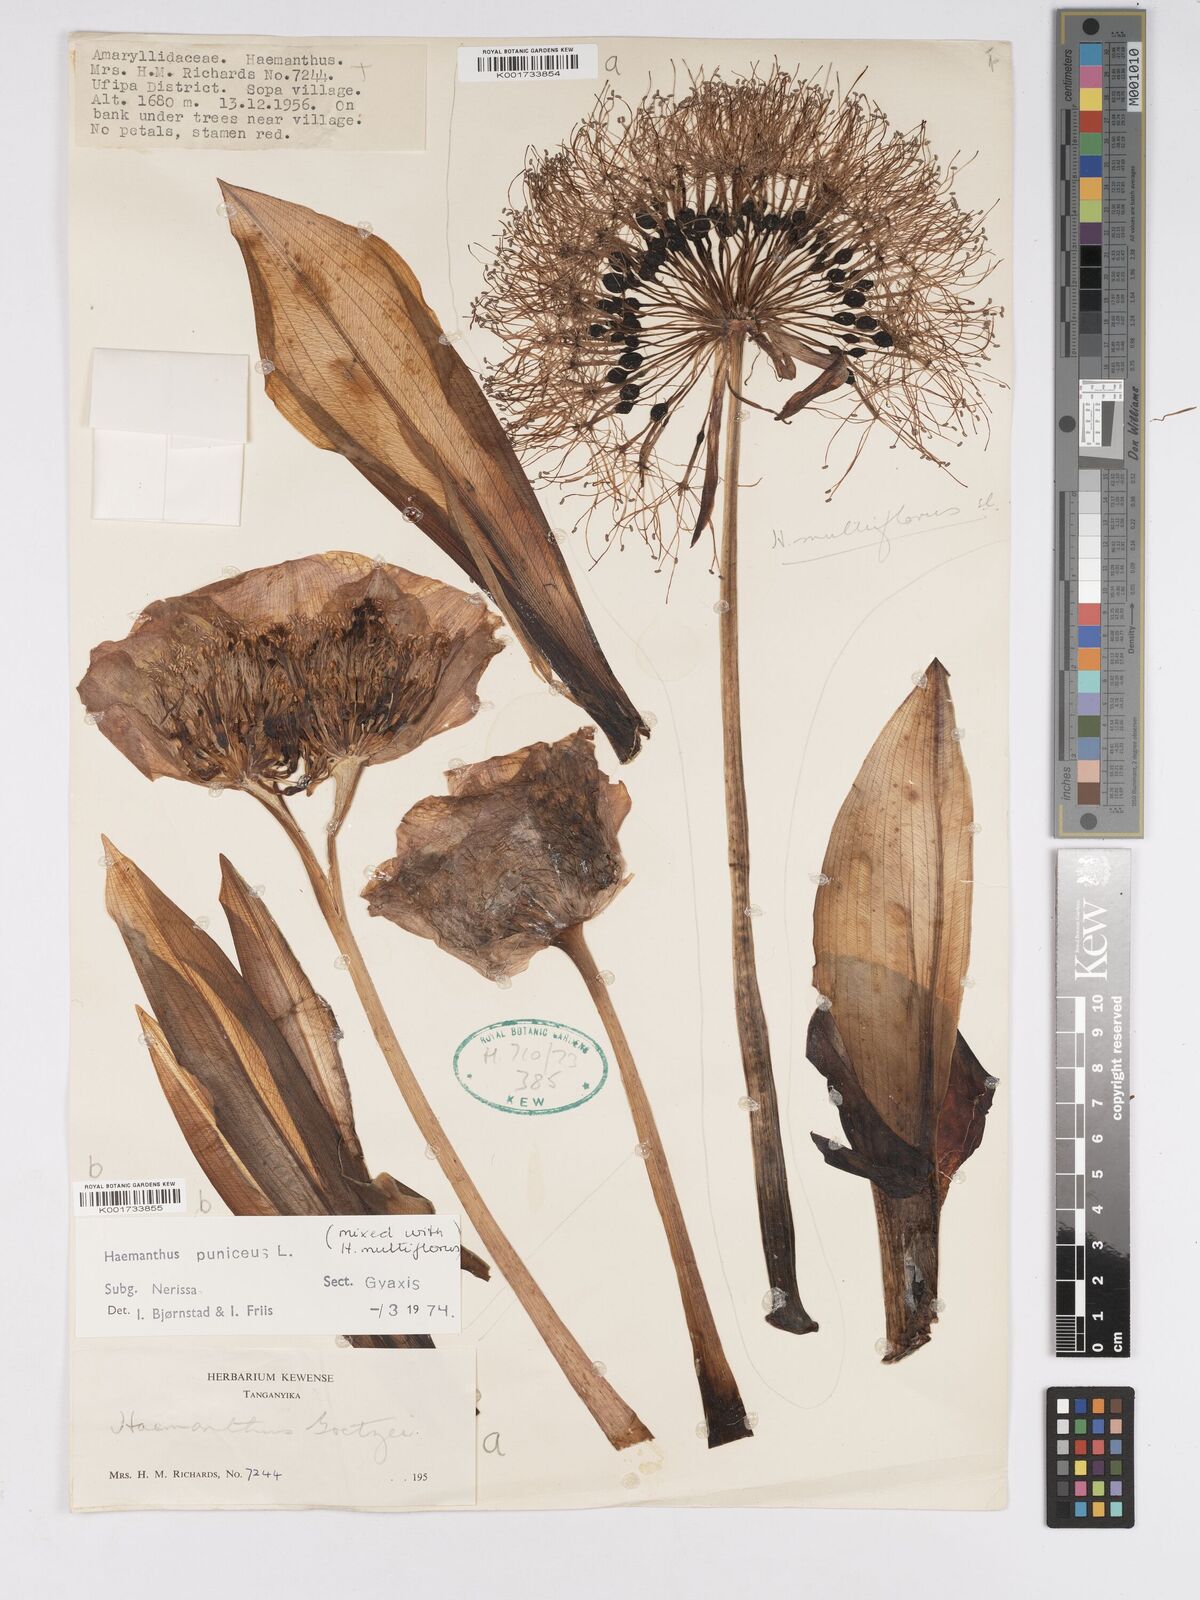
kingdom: Plantae
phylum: Tracheophyta
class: Liliopsida
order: Asparagales
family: Amaryllidaceae
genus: Scadoxus
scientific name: Scadoxus puniceus
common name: Royal-paintbrush
